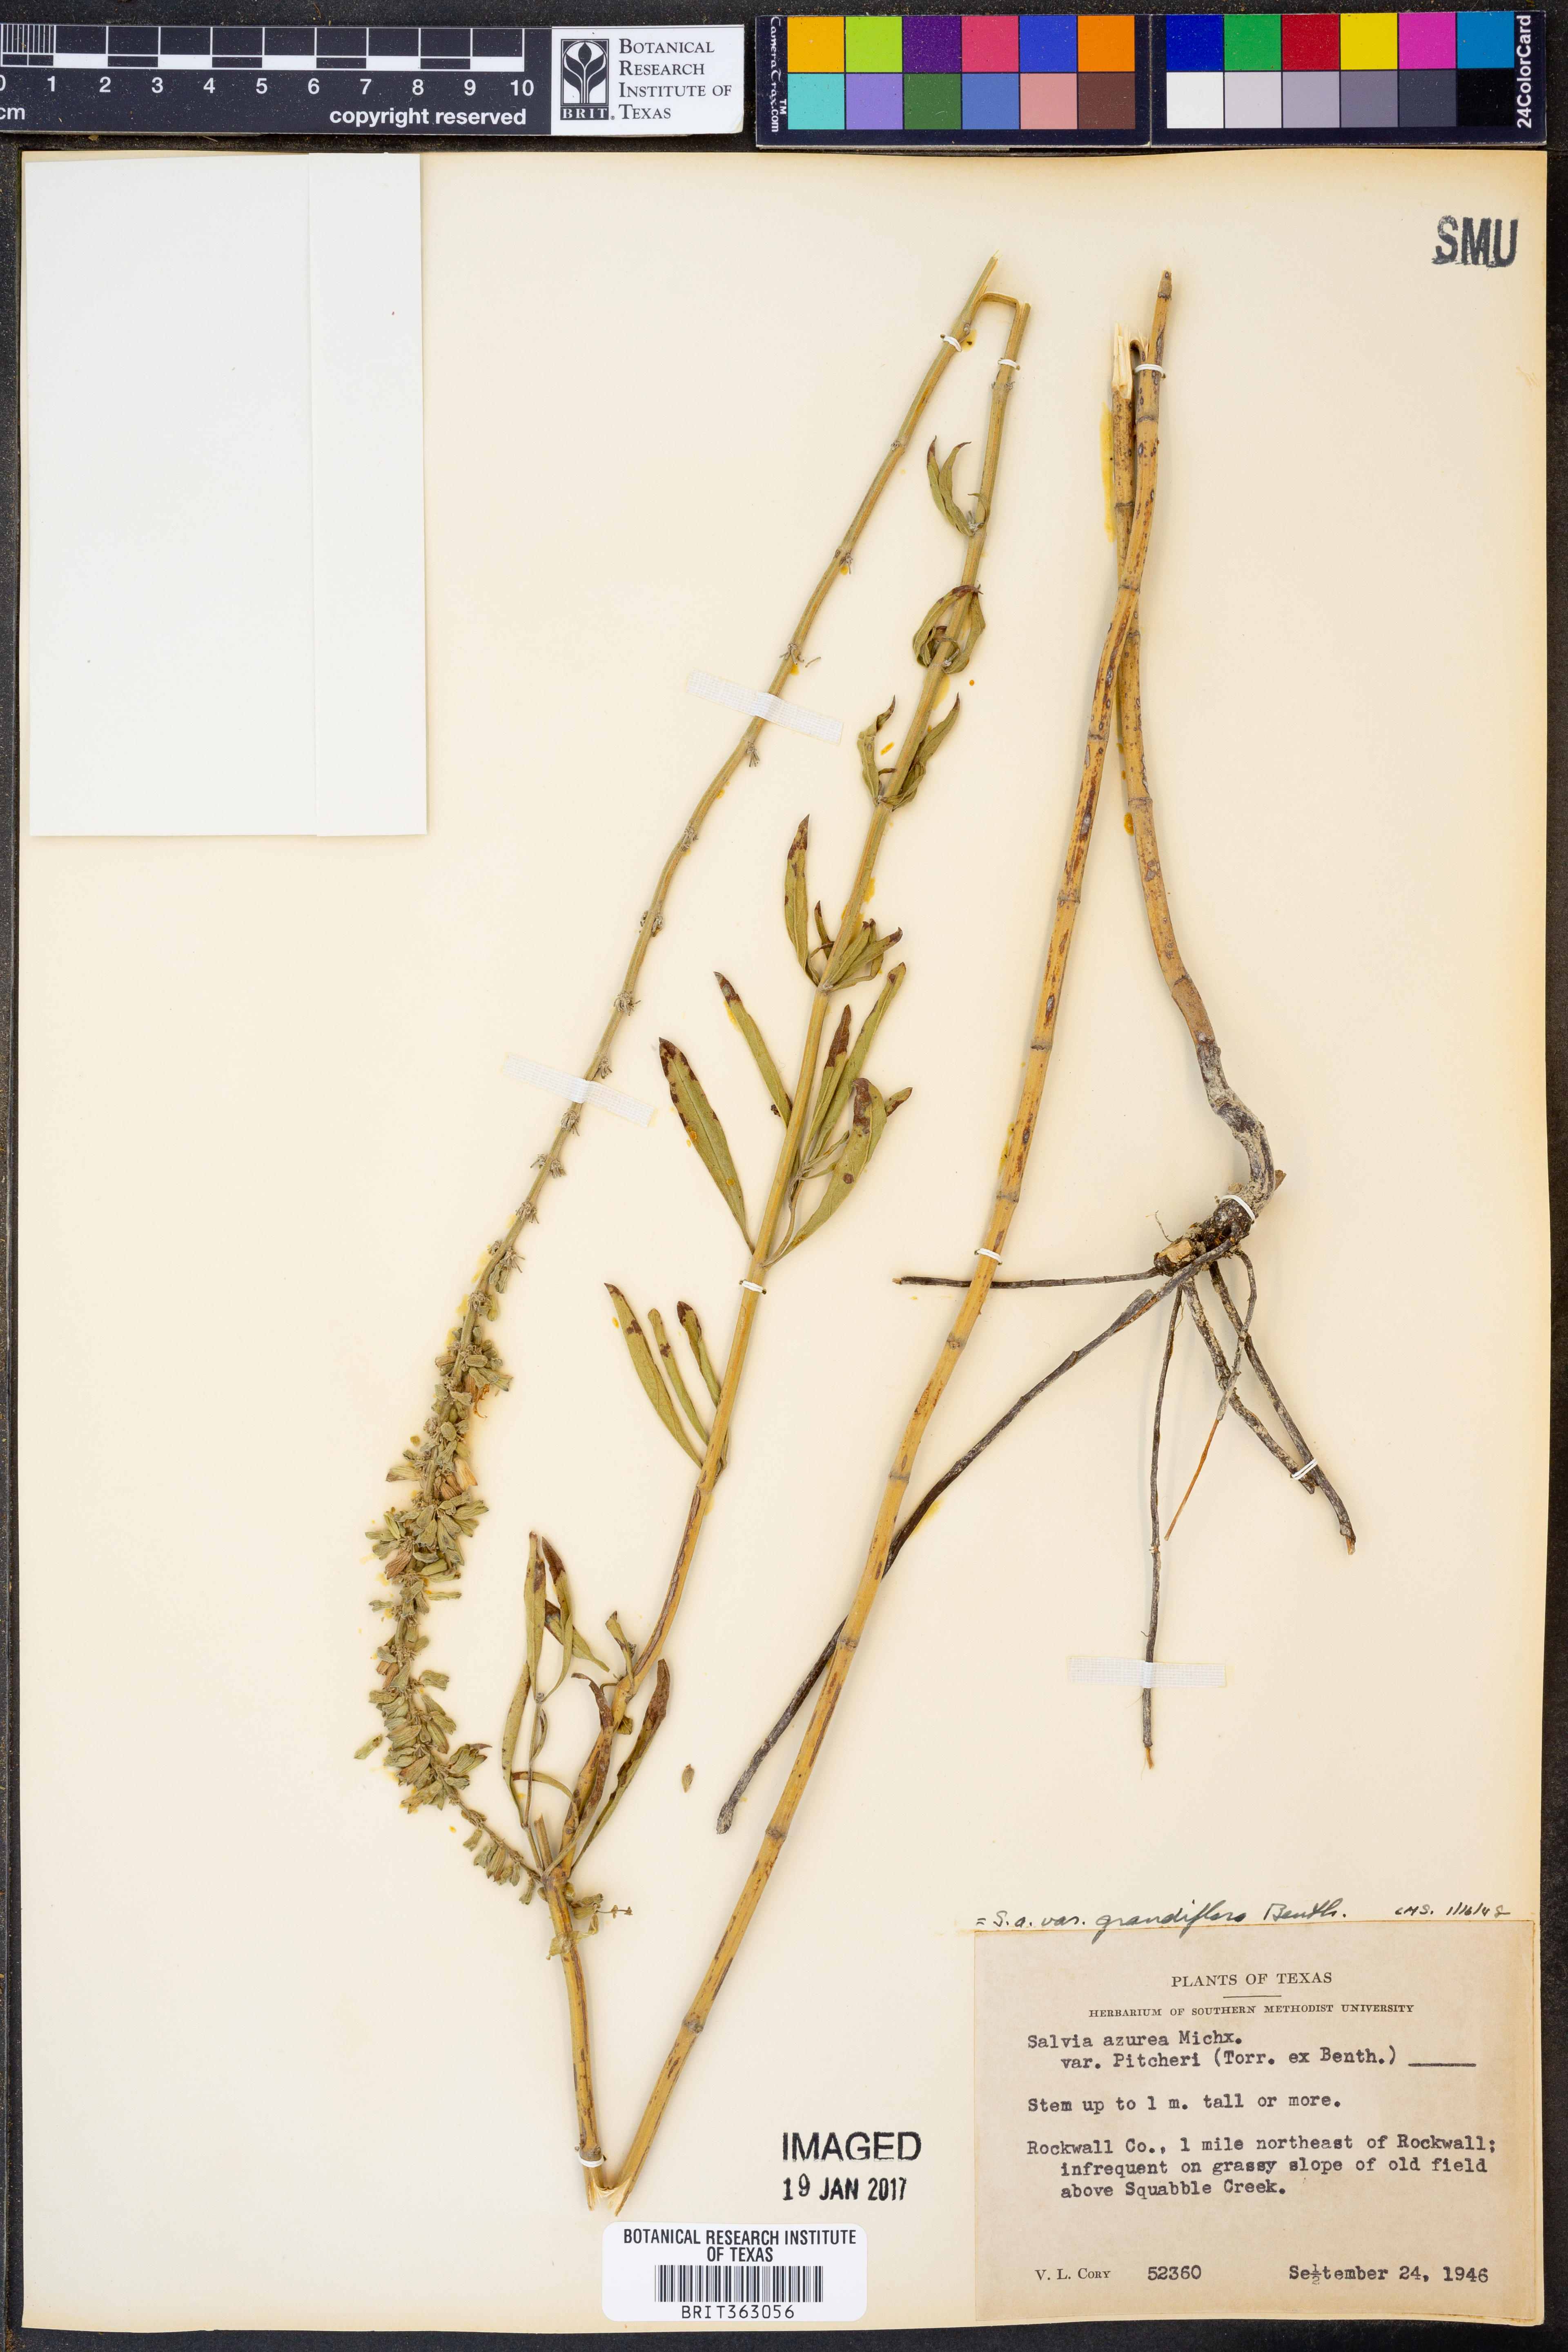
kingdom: Plantae
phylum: Tracheophyta
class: Magnoliopsida
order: Lamiales
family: Lamiaceae
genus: Salvia
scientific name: Salvia azurea
